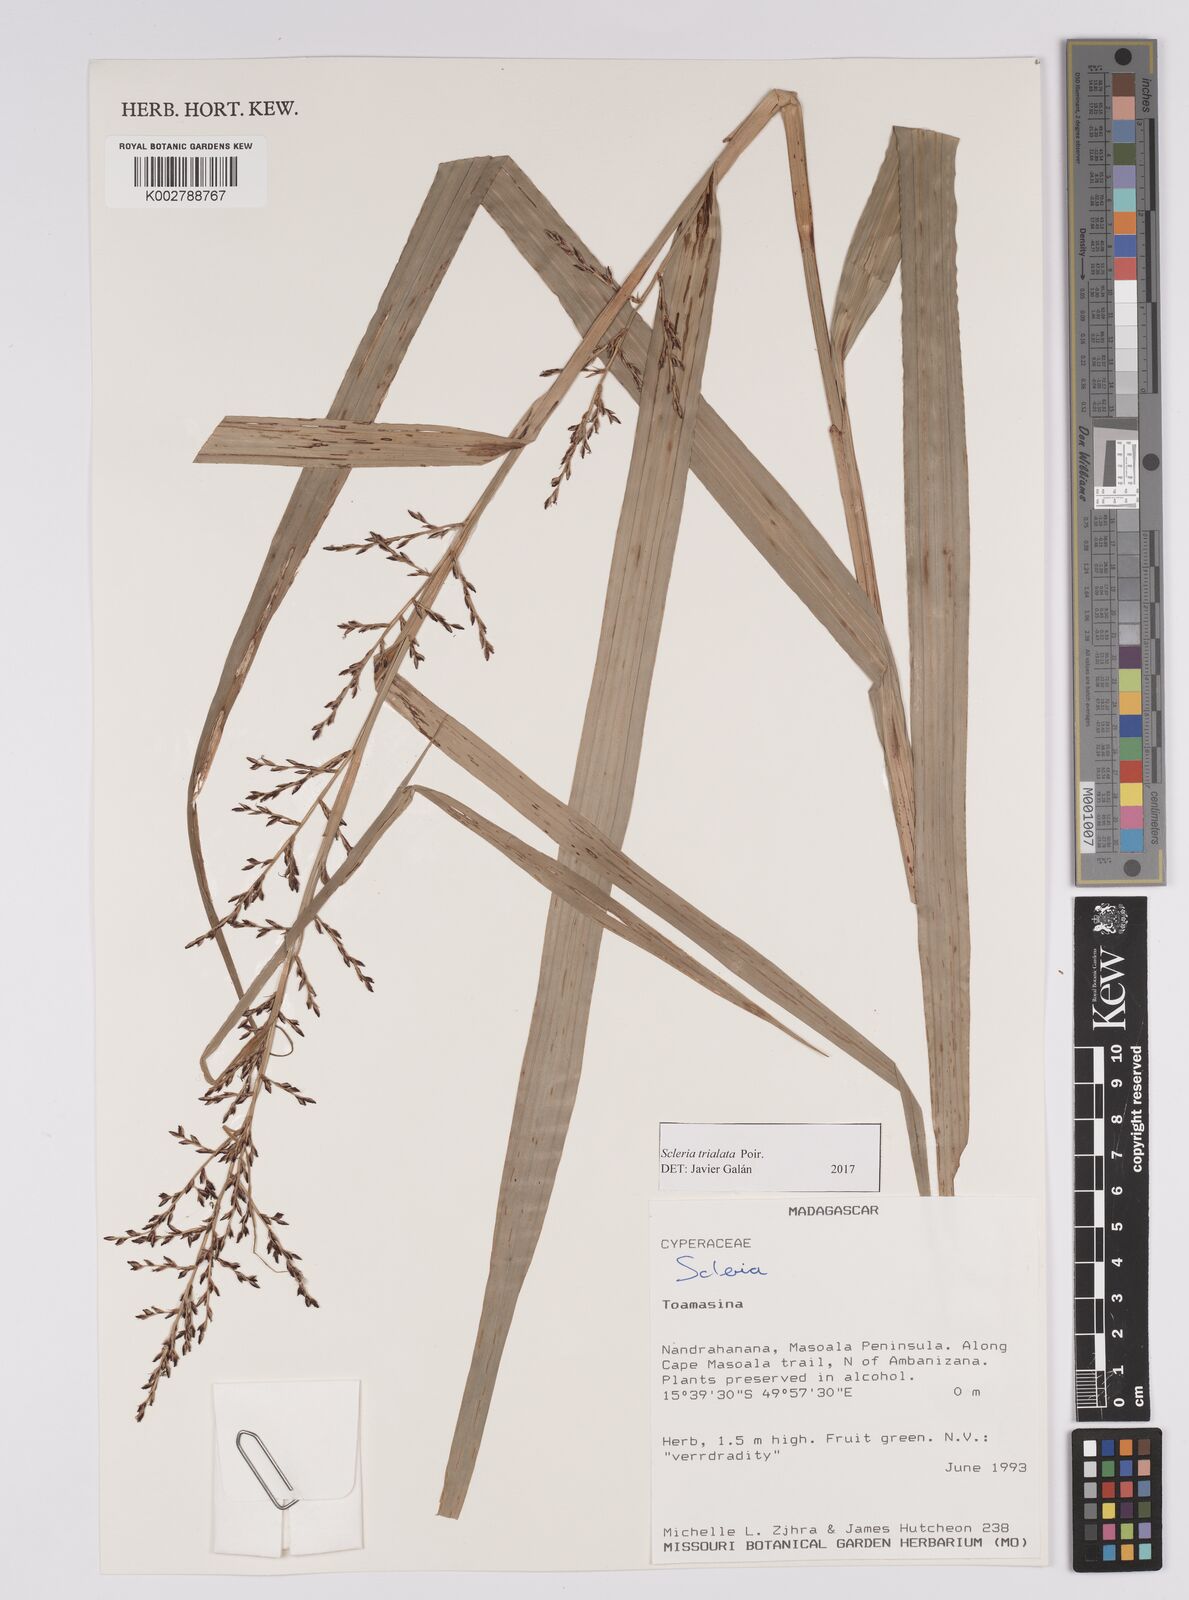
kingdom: Plantae
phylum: Tracheophyta
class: Liliopsida
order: Poales
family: Cyperaceae
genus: Scleria
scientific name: Scleria trialata
